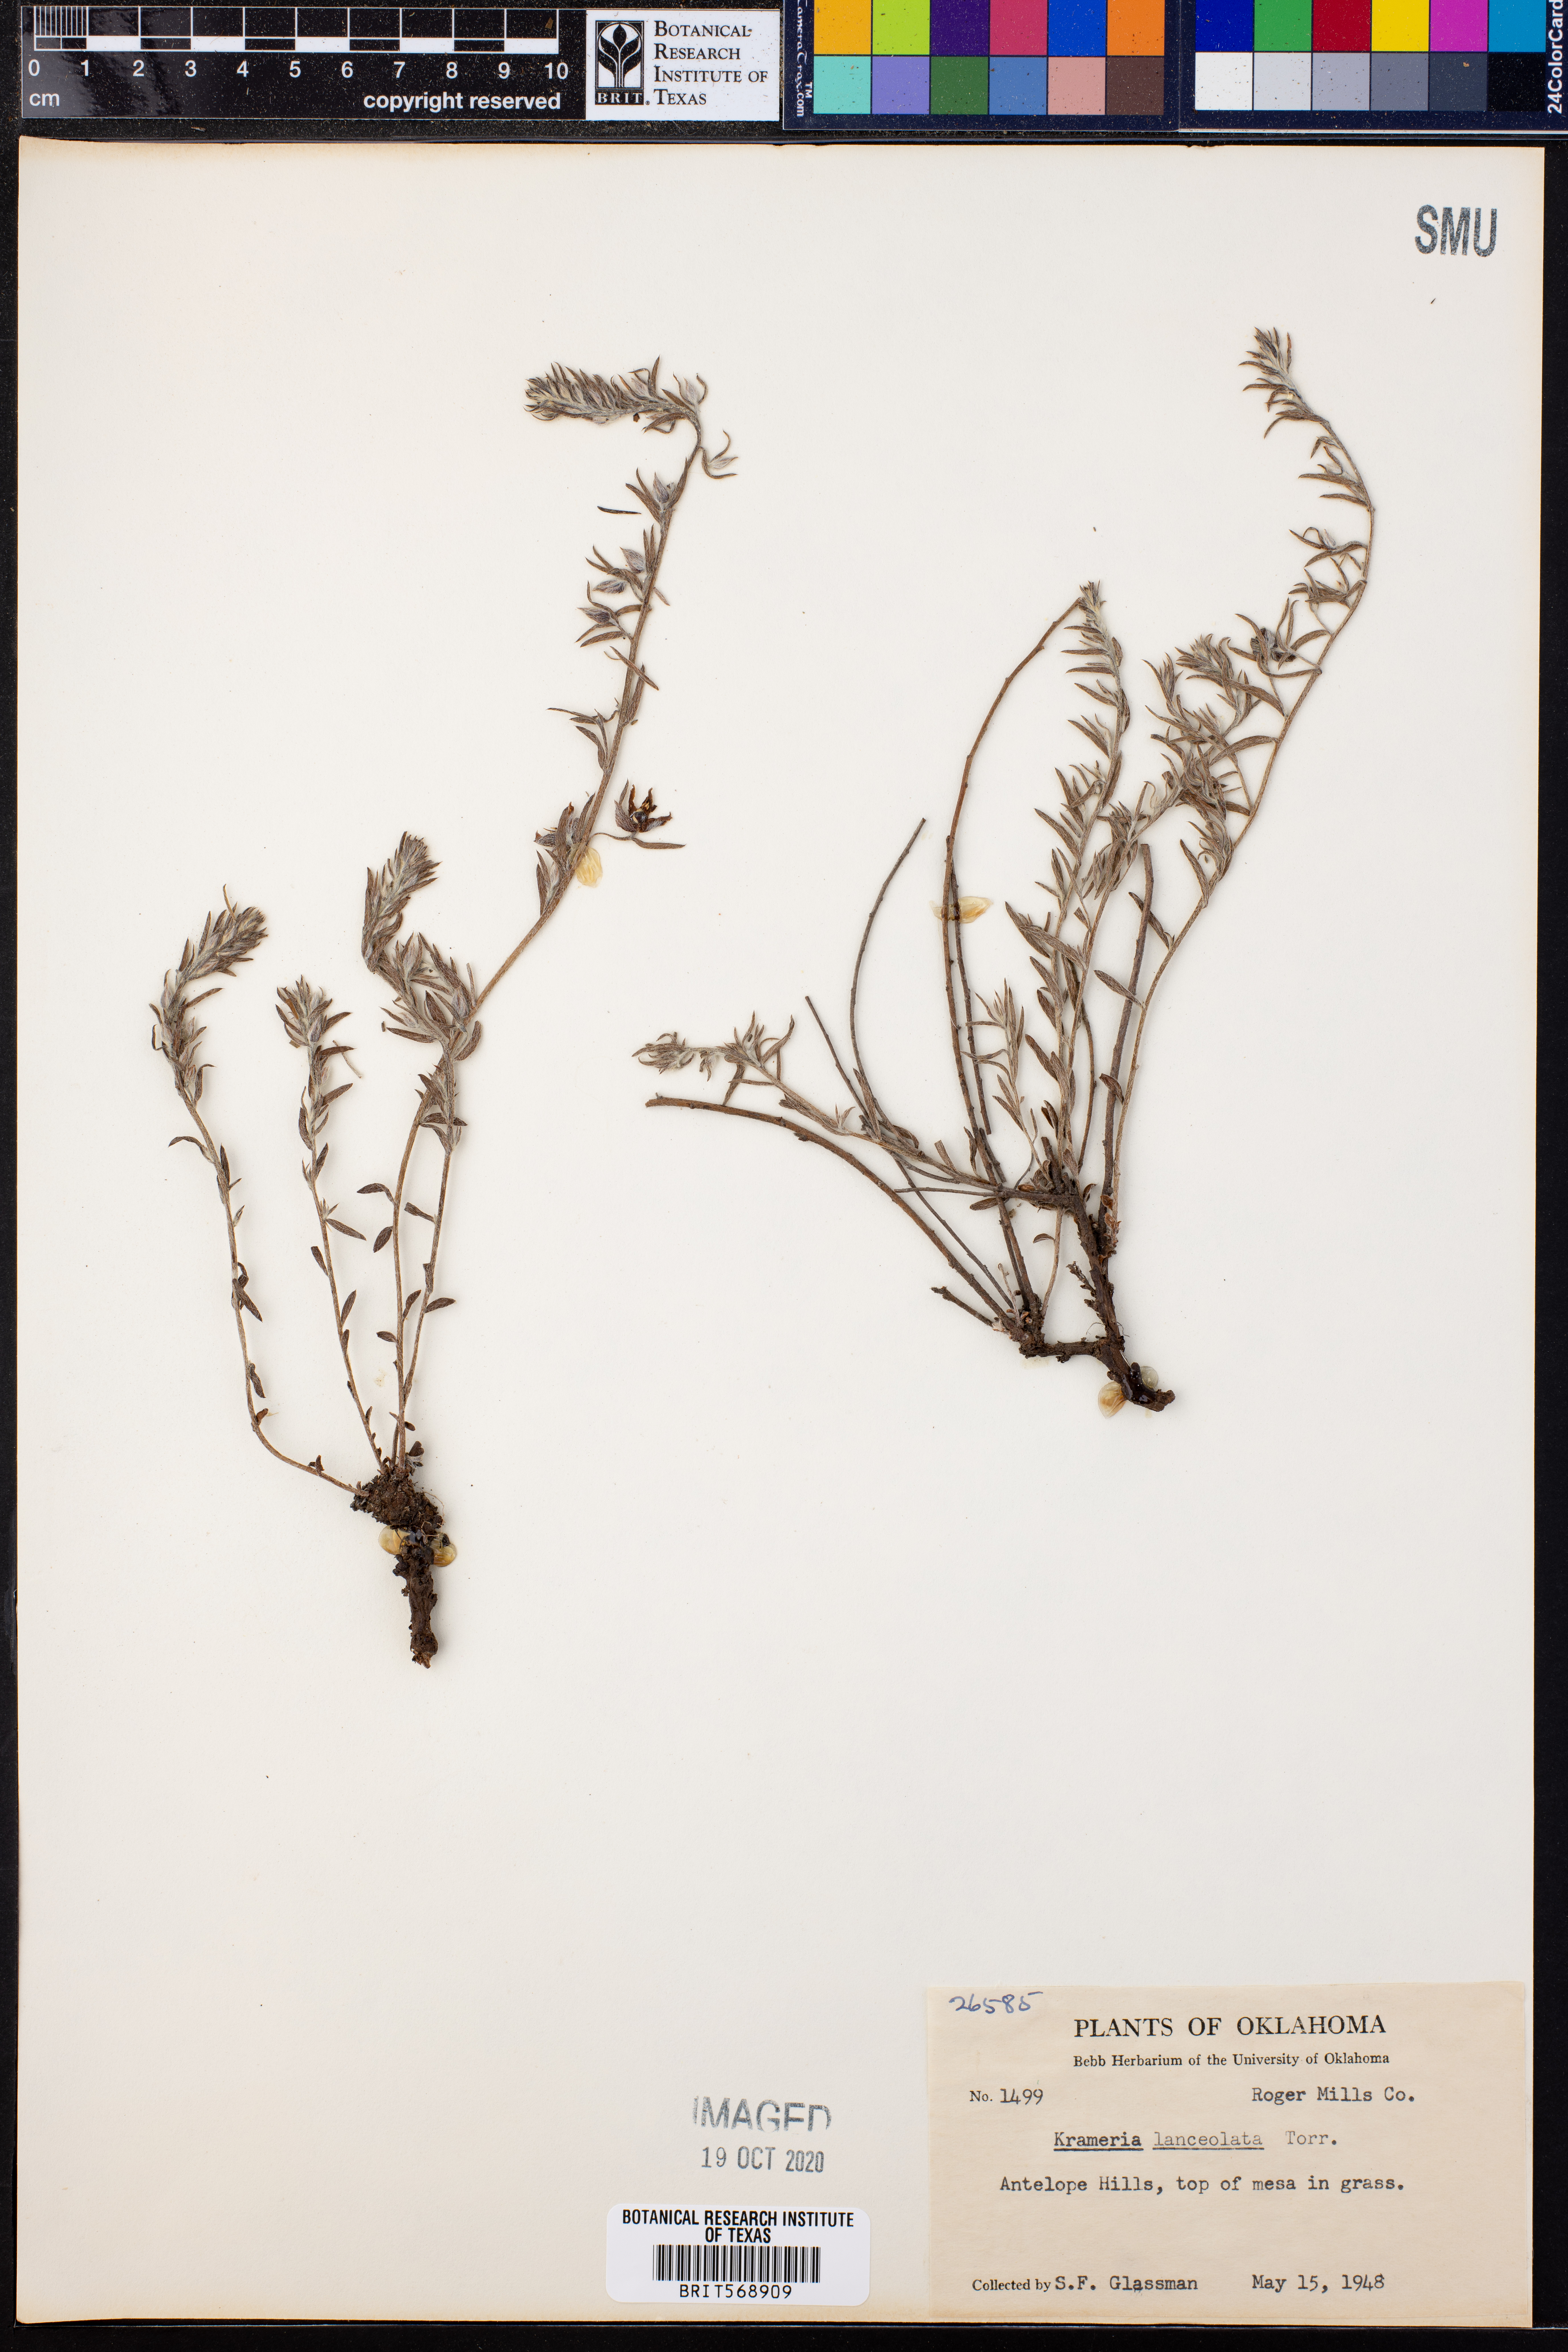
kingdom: Plantae
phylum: Tracheophyta
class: Magnoliopsida
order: Zygophyllales
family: Krameriaceae
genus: Krameria
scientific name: Krameria lanceolata
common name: Ratany
